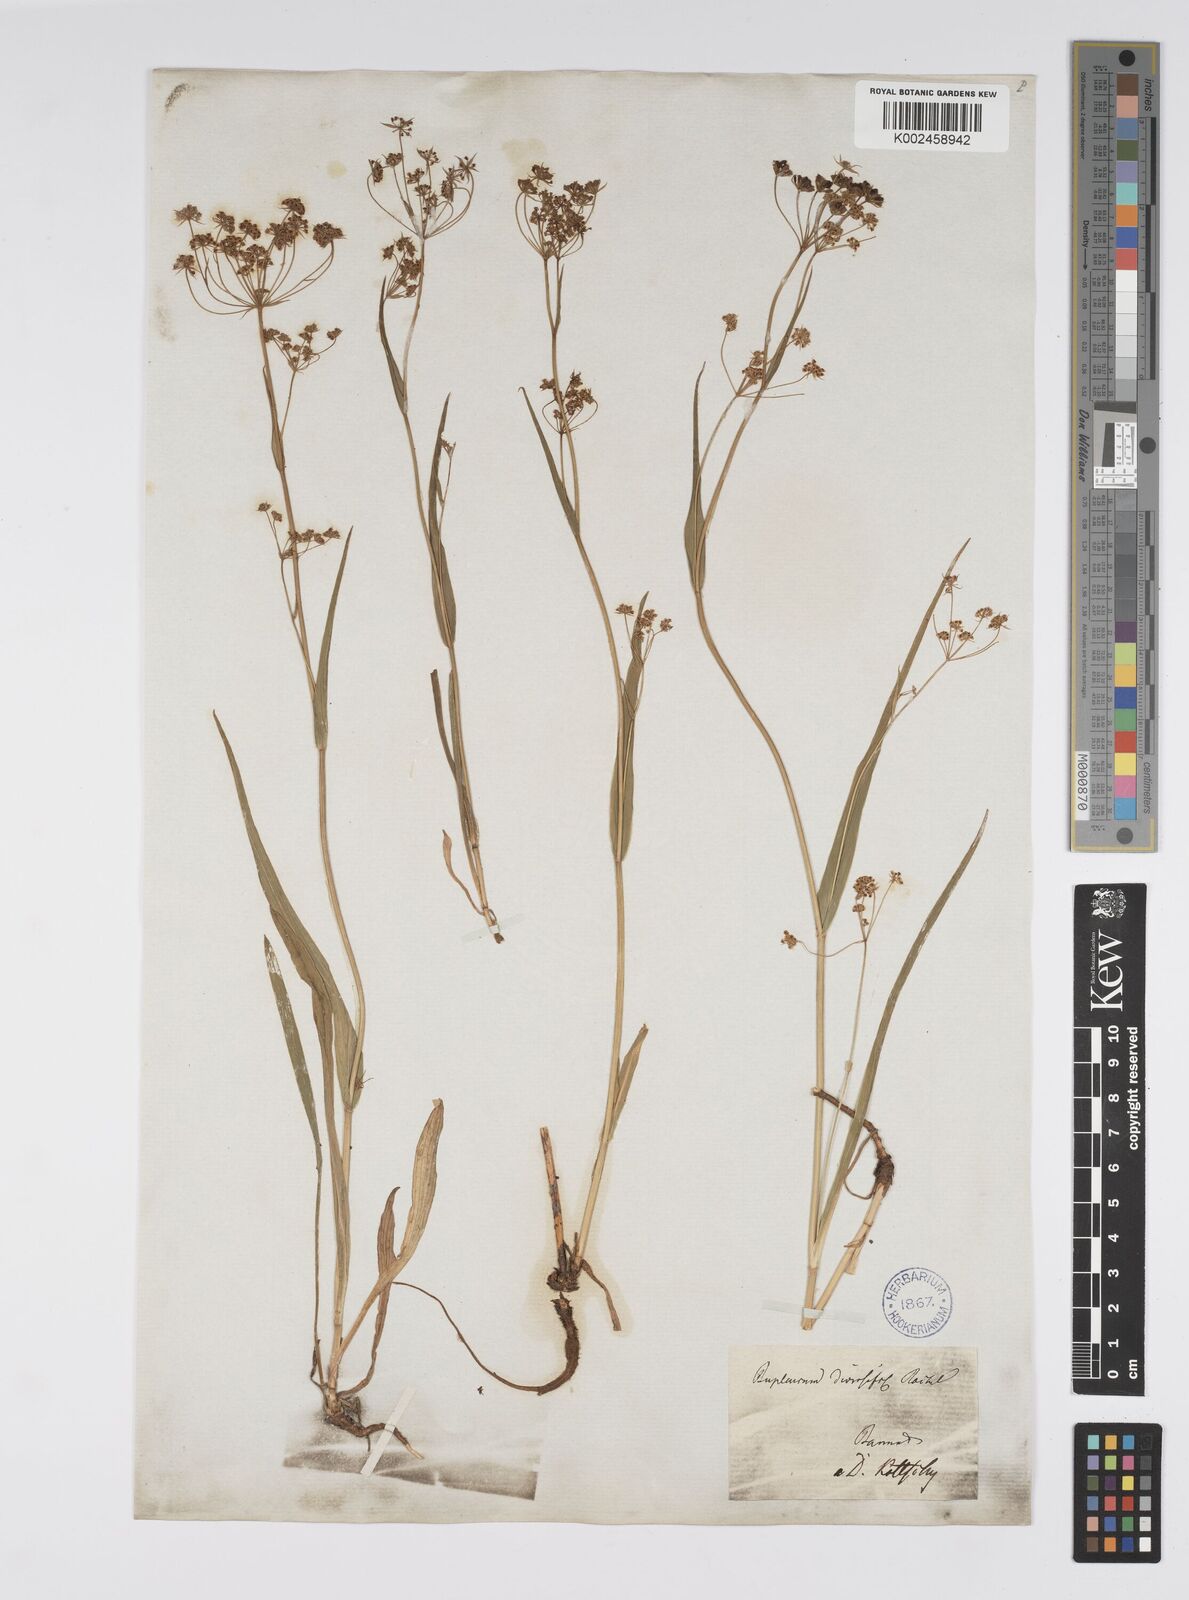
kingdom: Plantae
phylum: Tracheophyta
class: Magnoliopsida
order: Apiales
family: Apiaceae
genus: Bupleurum
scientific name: Bupleurum falcatum
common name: Sickle-leaved hare's-ear
